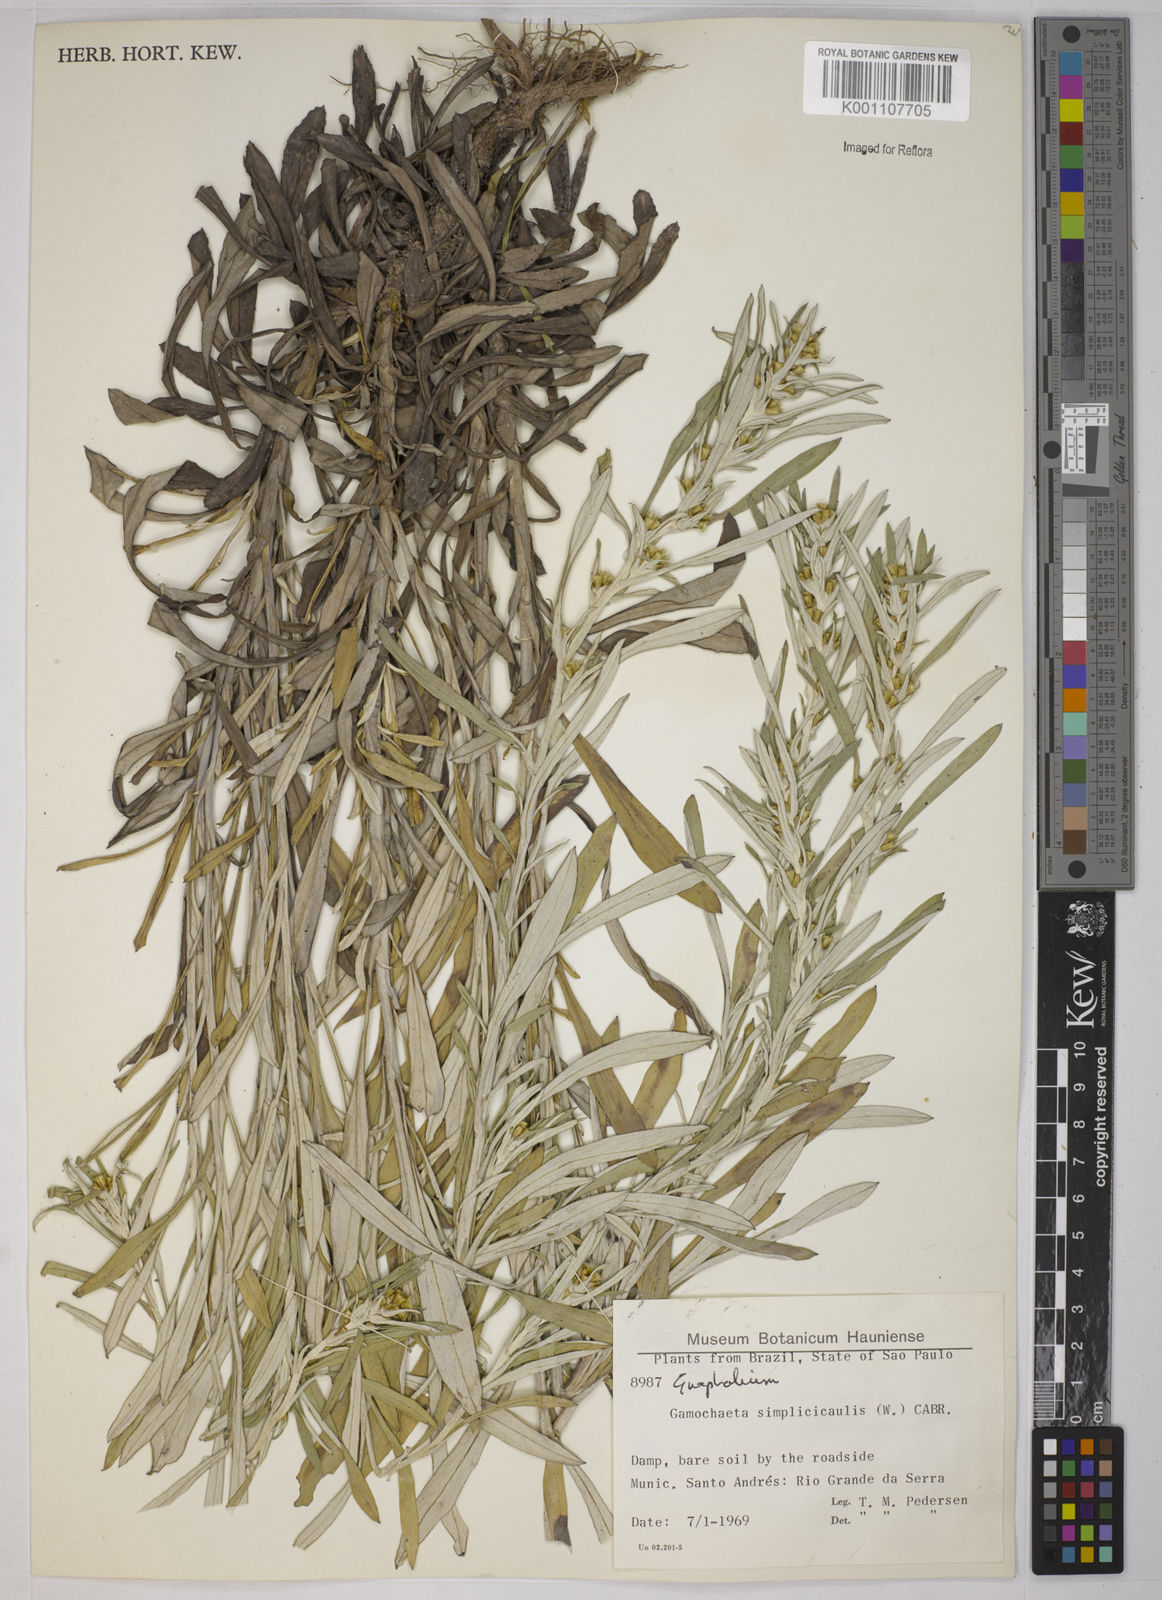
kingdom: Plantae
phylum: Tracheophyta
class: Magnoliopsida
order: Asterales
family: Asteraceae
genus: Gamochaeta
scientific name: Gamochaeta simplicicaulis
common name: Simple-stem everlasting
